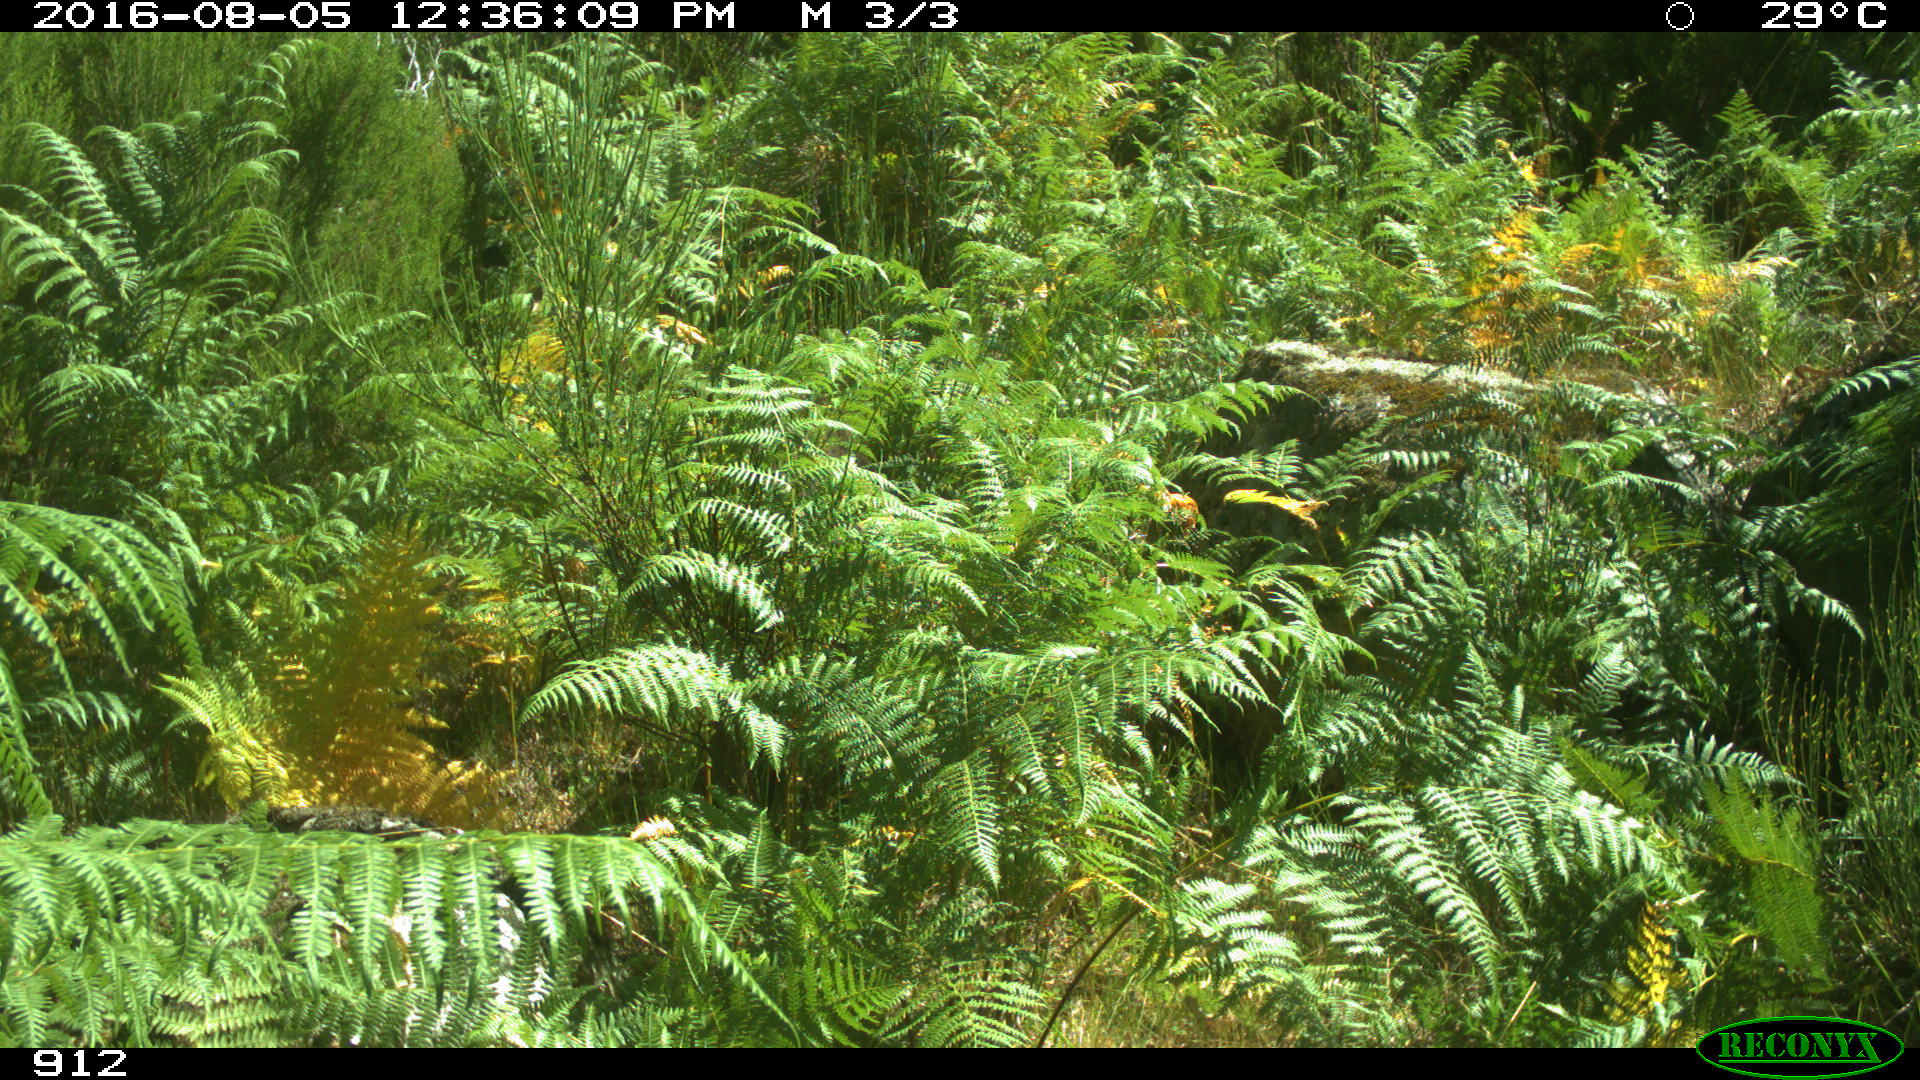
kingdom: Animalia
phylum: Chordata
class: Mammalia
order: Artiodactyla
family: Suidae
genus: Sus
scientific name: Sus scrofa
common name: Wild boar
